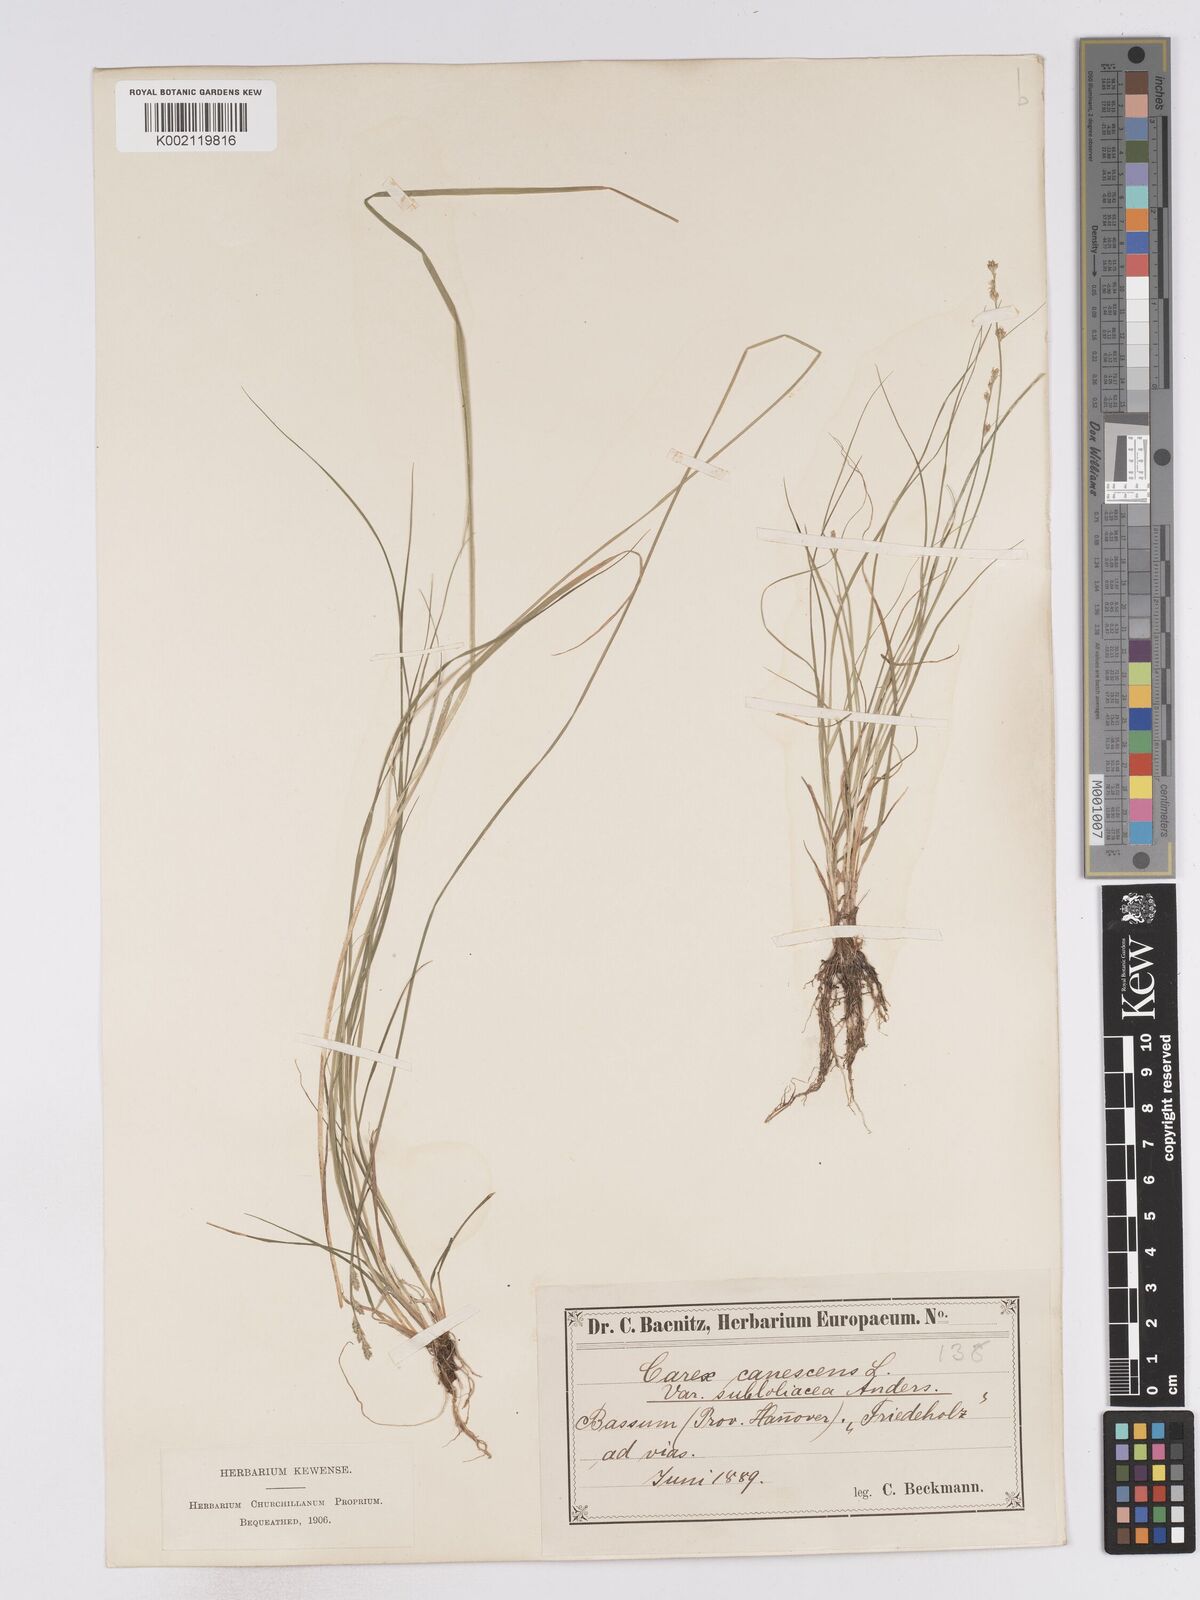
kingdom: Plantae
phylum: Tracheophyta
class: Liliopsida
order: Poales
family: Cyperaceae
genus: Carex
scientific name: Carex curta
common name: White sedge
